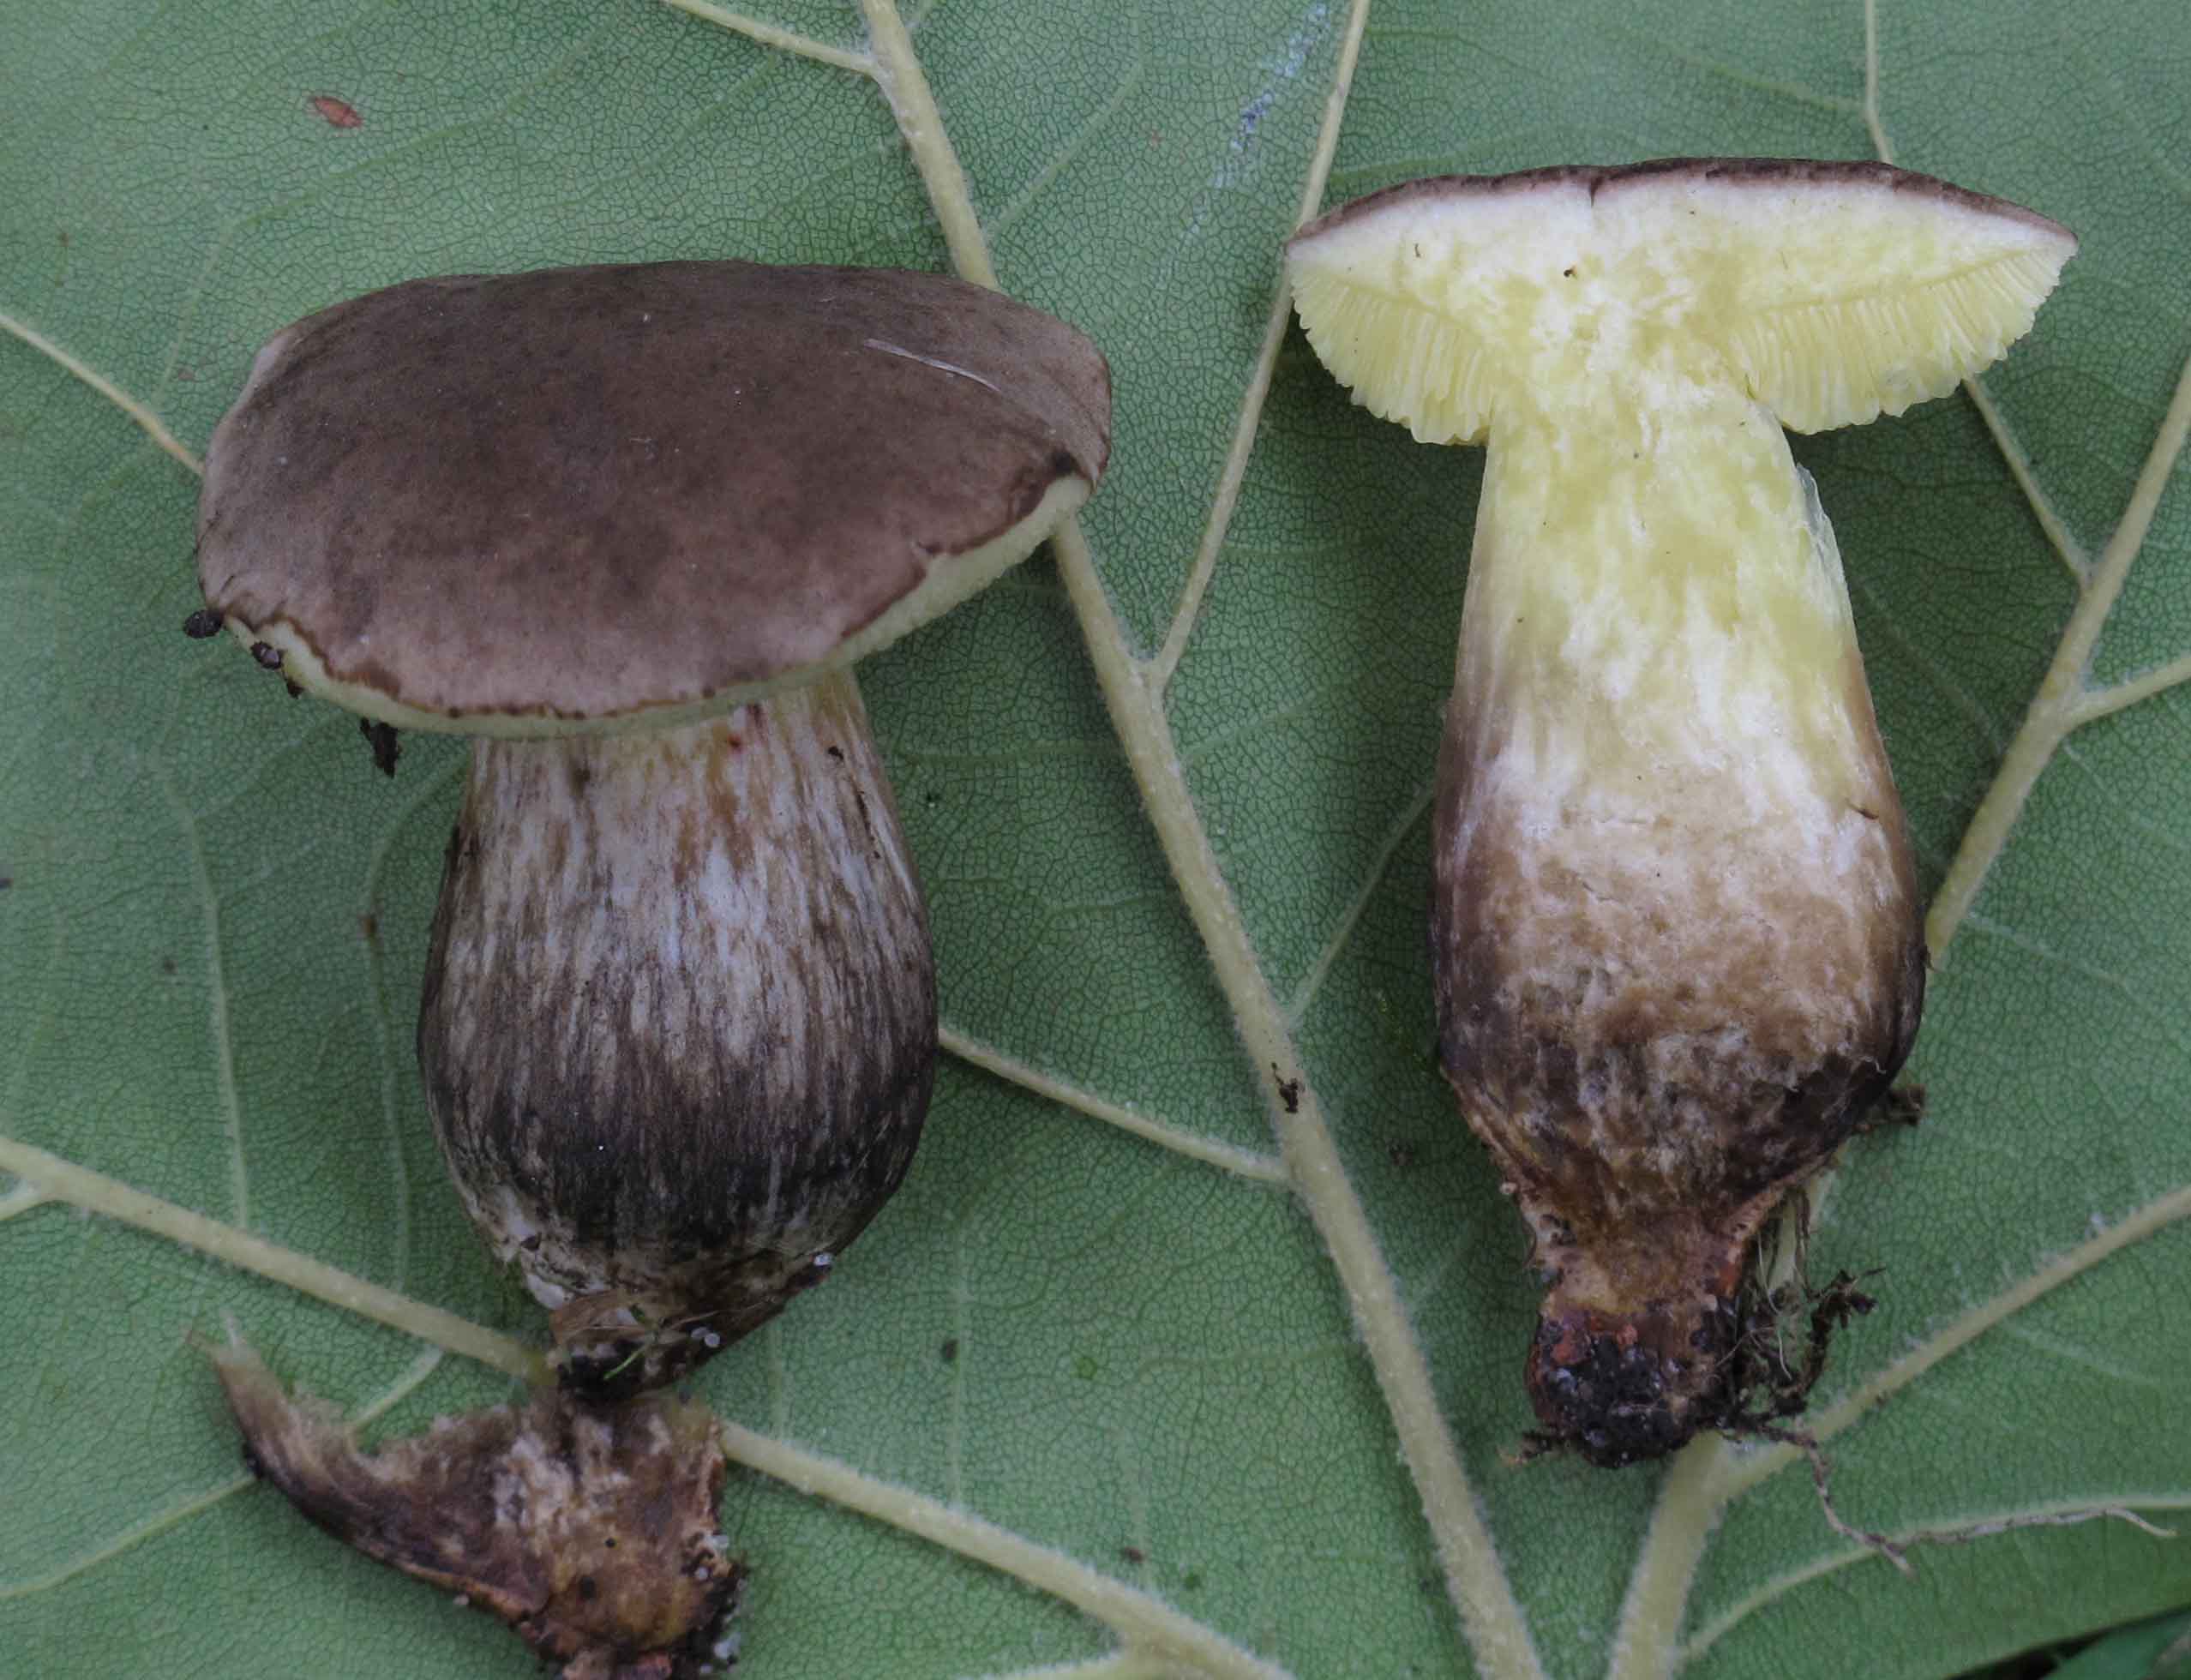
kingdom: Fungi
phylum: Basidiomycota
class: Agaricomycetes
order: Boletales
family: Boletaceae
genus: Xerocomellus
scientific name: Xerocomellus porosporus
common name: hvidsprukken rørhat
